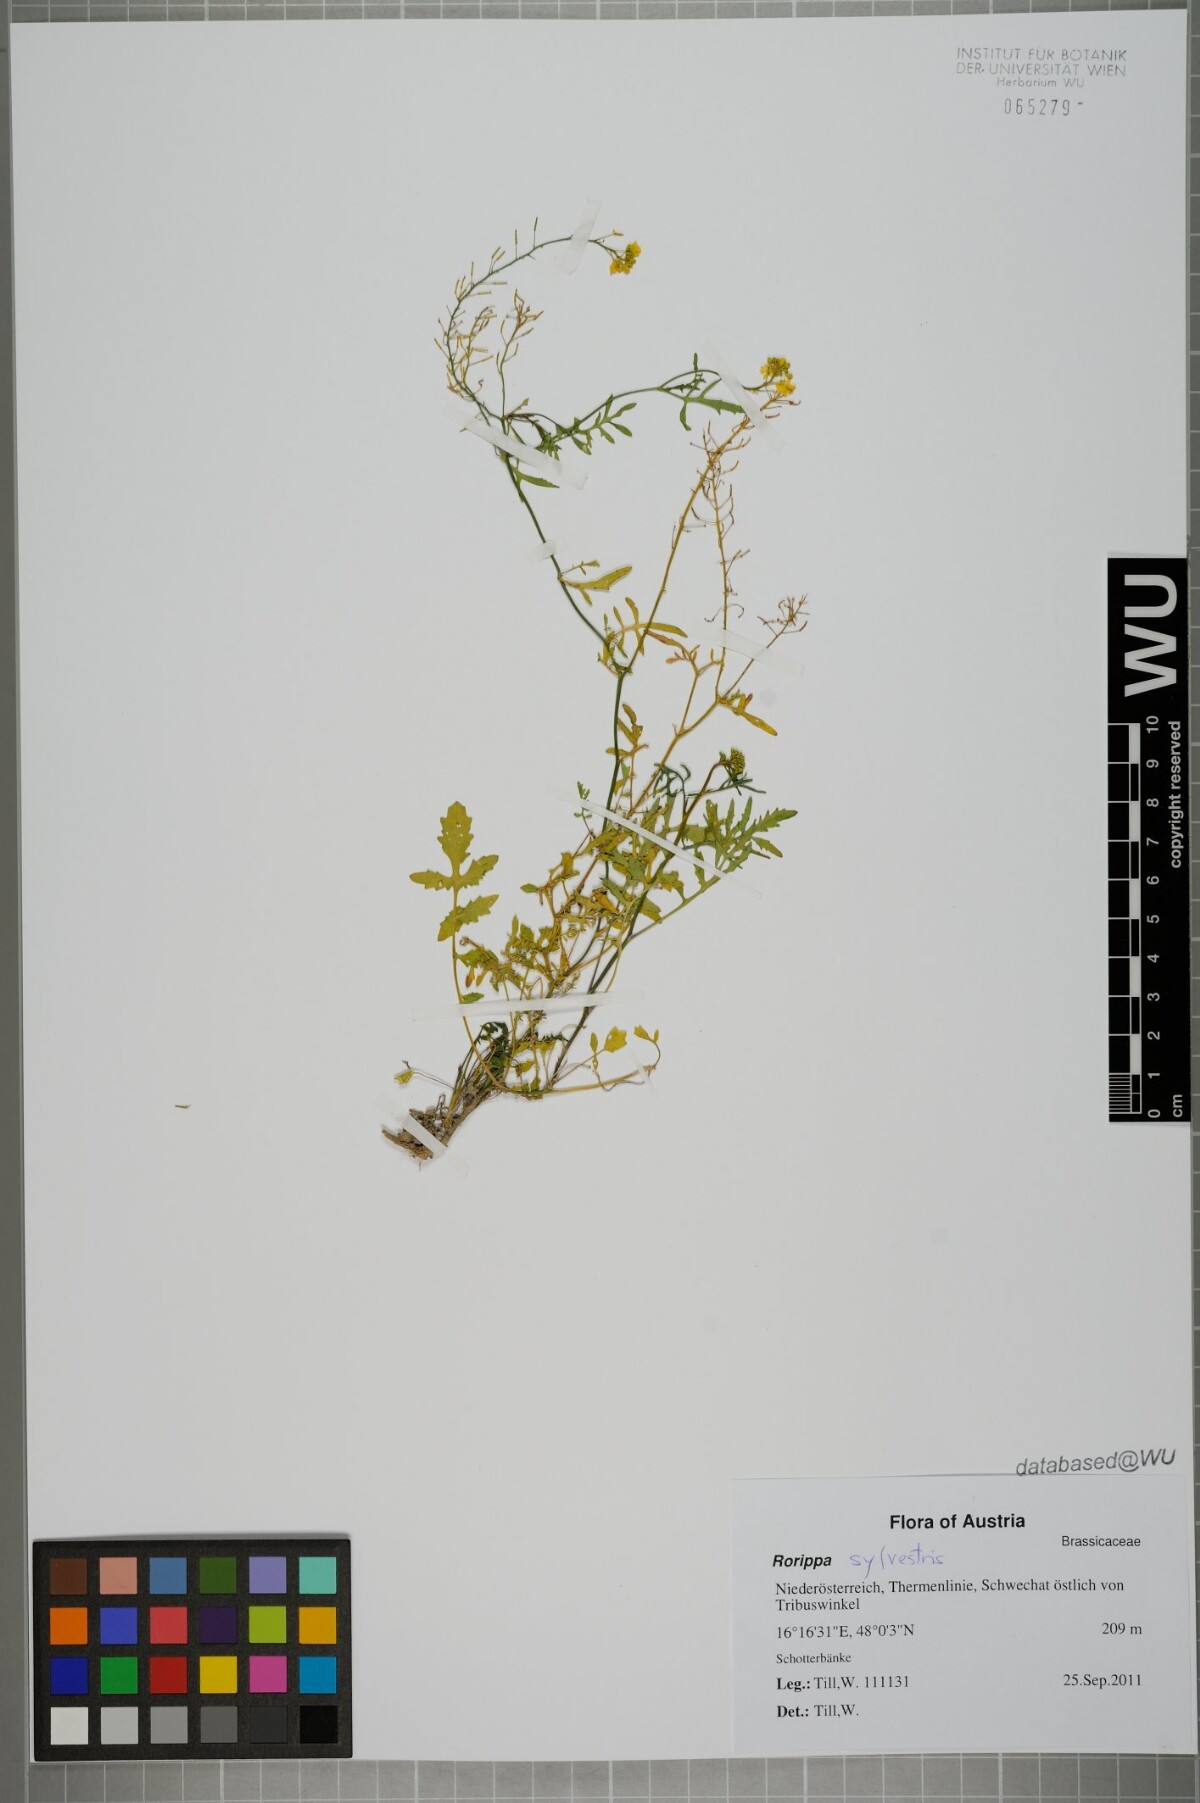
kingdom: Plantae
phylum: Tracheophyta
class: Magnoliopsida
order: Brassicales
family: Brassicaceae
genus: Rorippa
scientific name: Rorippa sylvestris
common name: Creeping yellowcress
